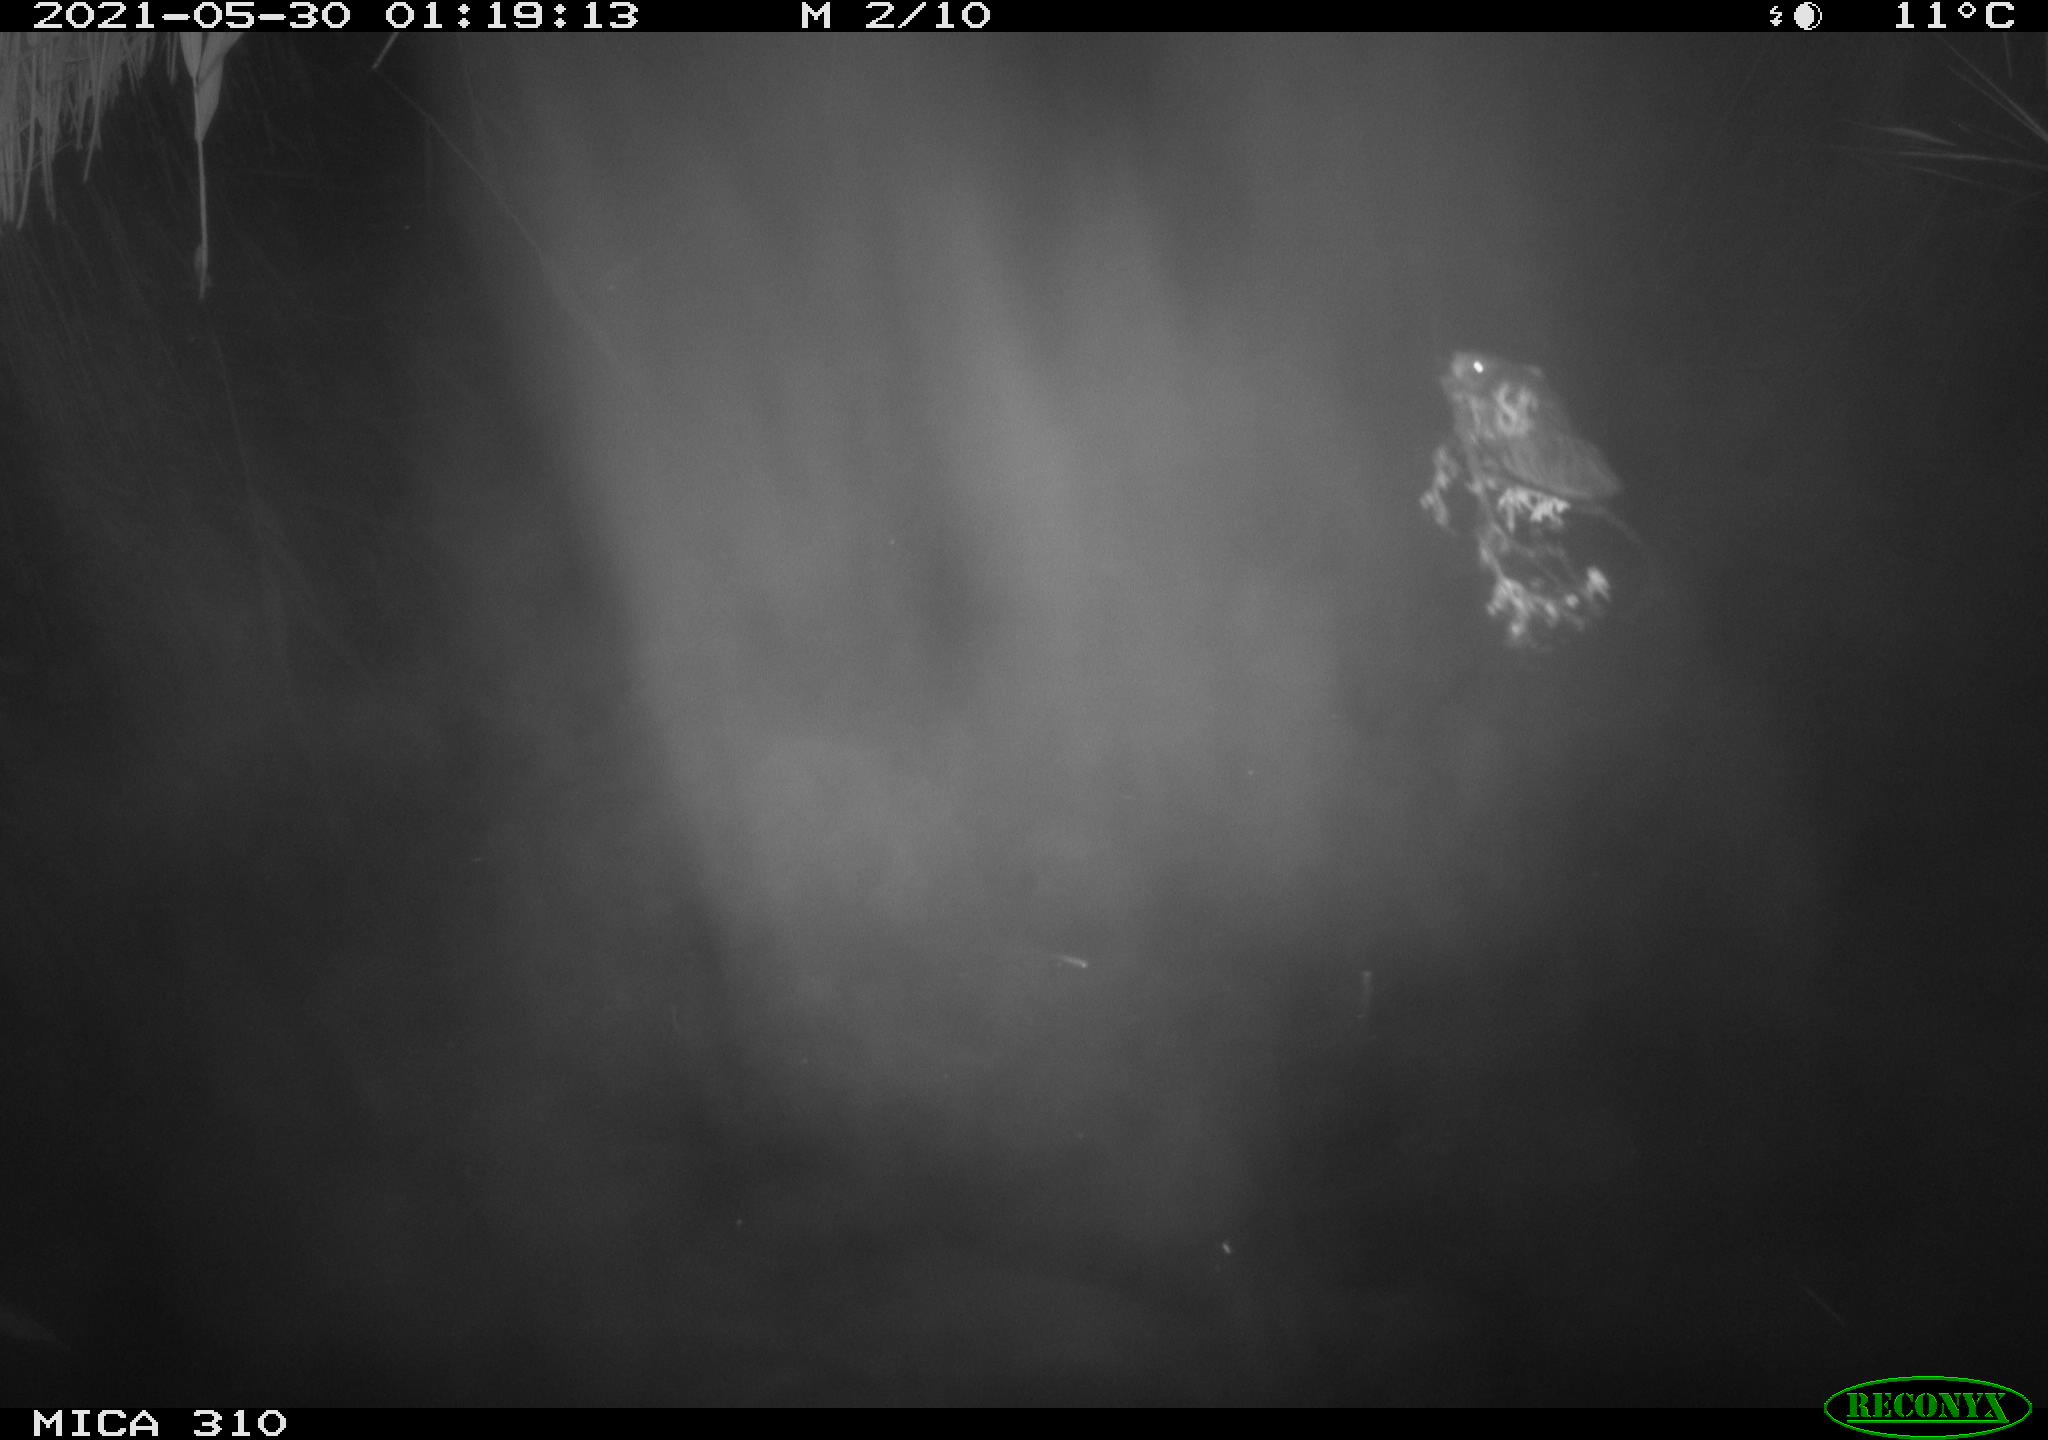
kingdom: Animalia
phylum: Chordata
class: Mammalia
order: Rodentia
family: Cricetidae
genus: Ondatra
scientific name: Ondatra zibethicus
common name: Muskrat
